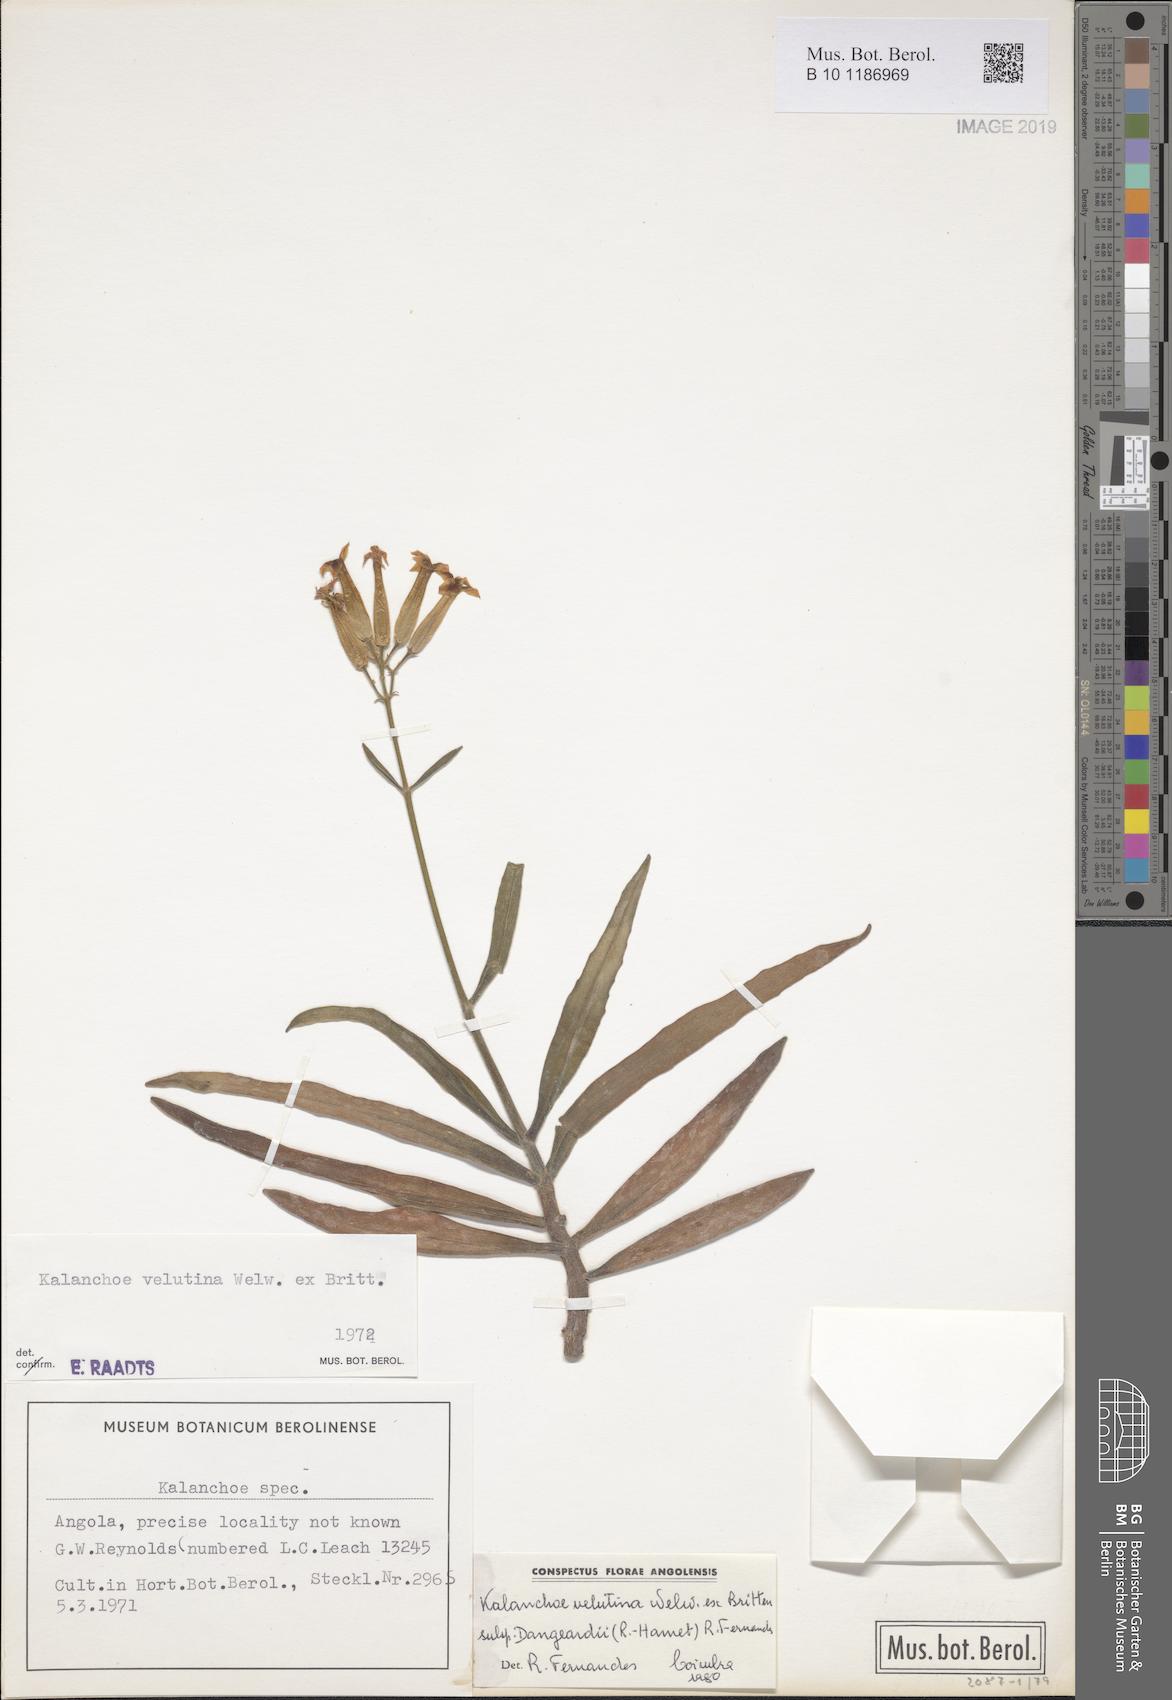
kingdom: Plantae
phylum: Tracheophyta
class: Magnoliopsida
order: Saxifragales
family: Crassulaceae
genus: Kalanchoe
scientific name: Kalanchoe velutina
